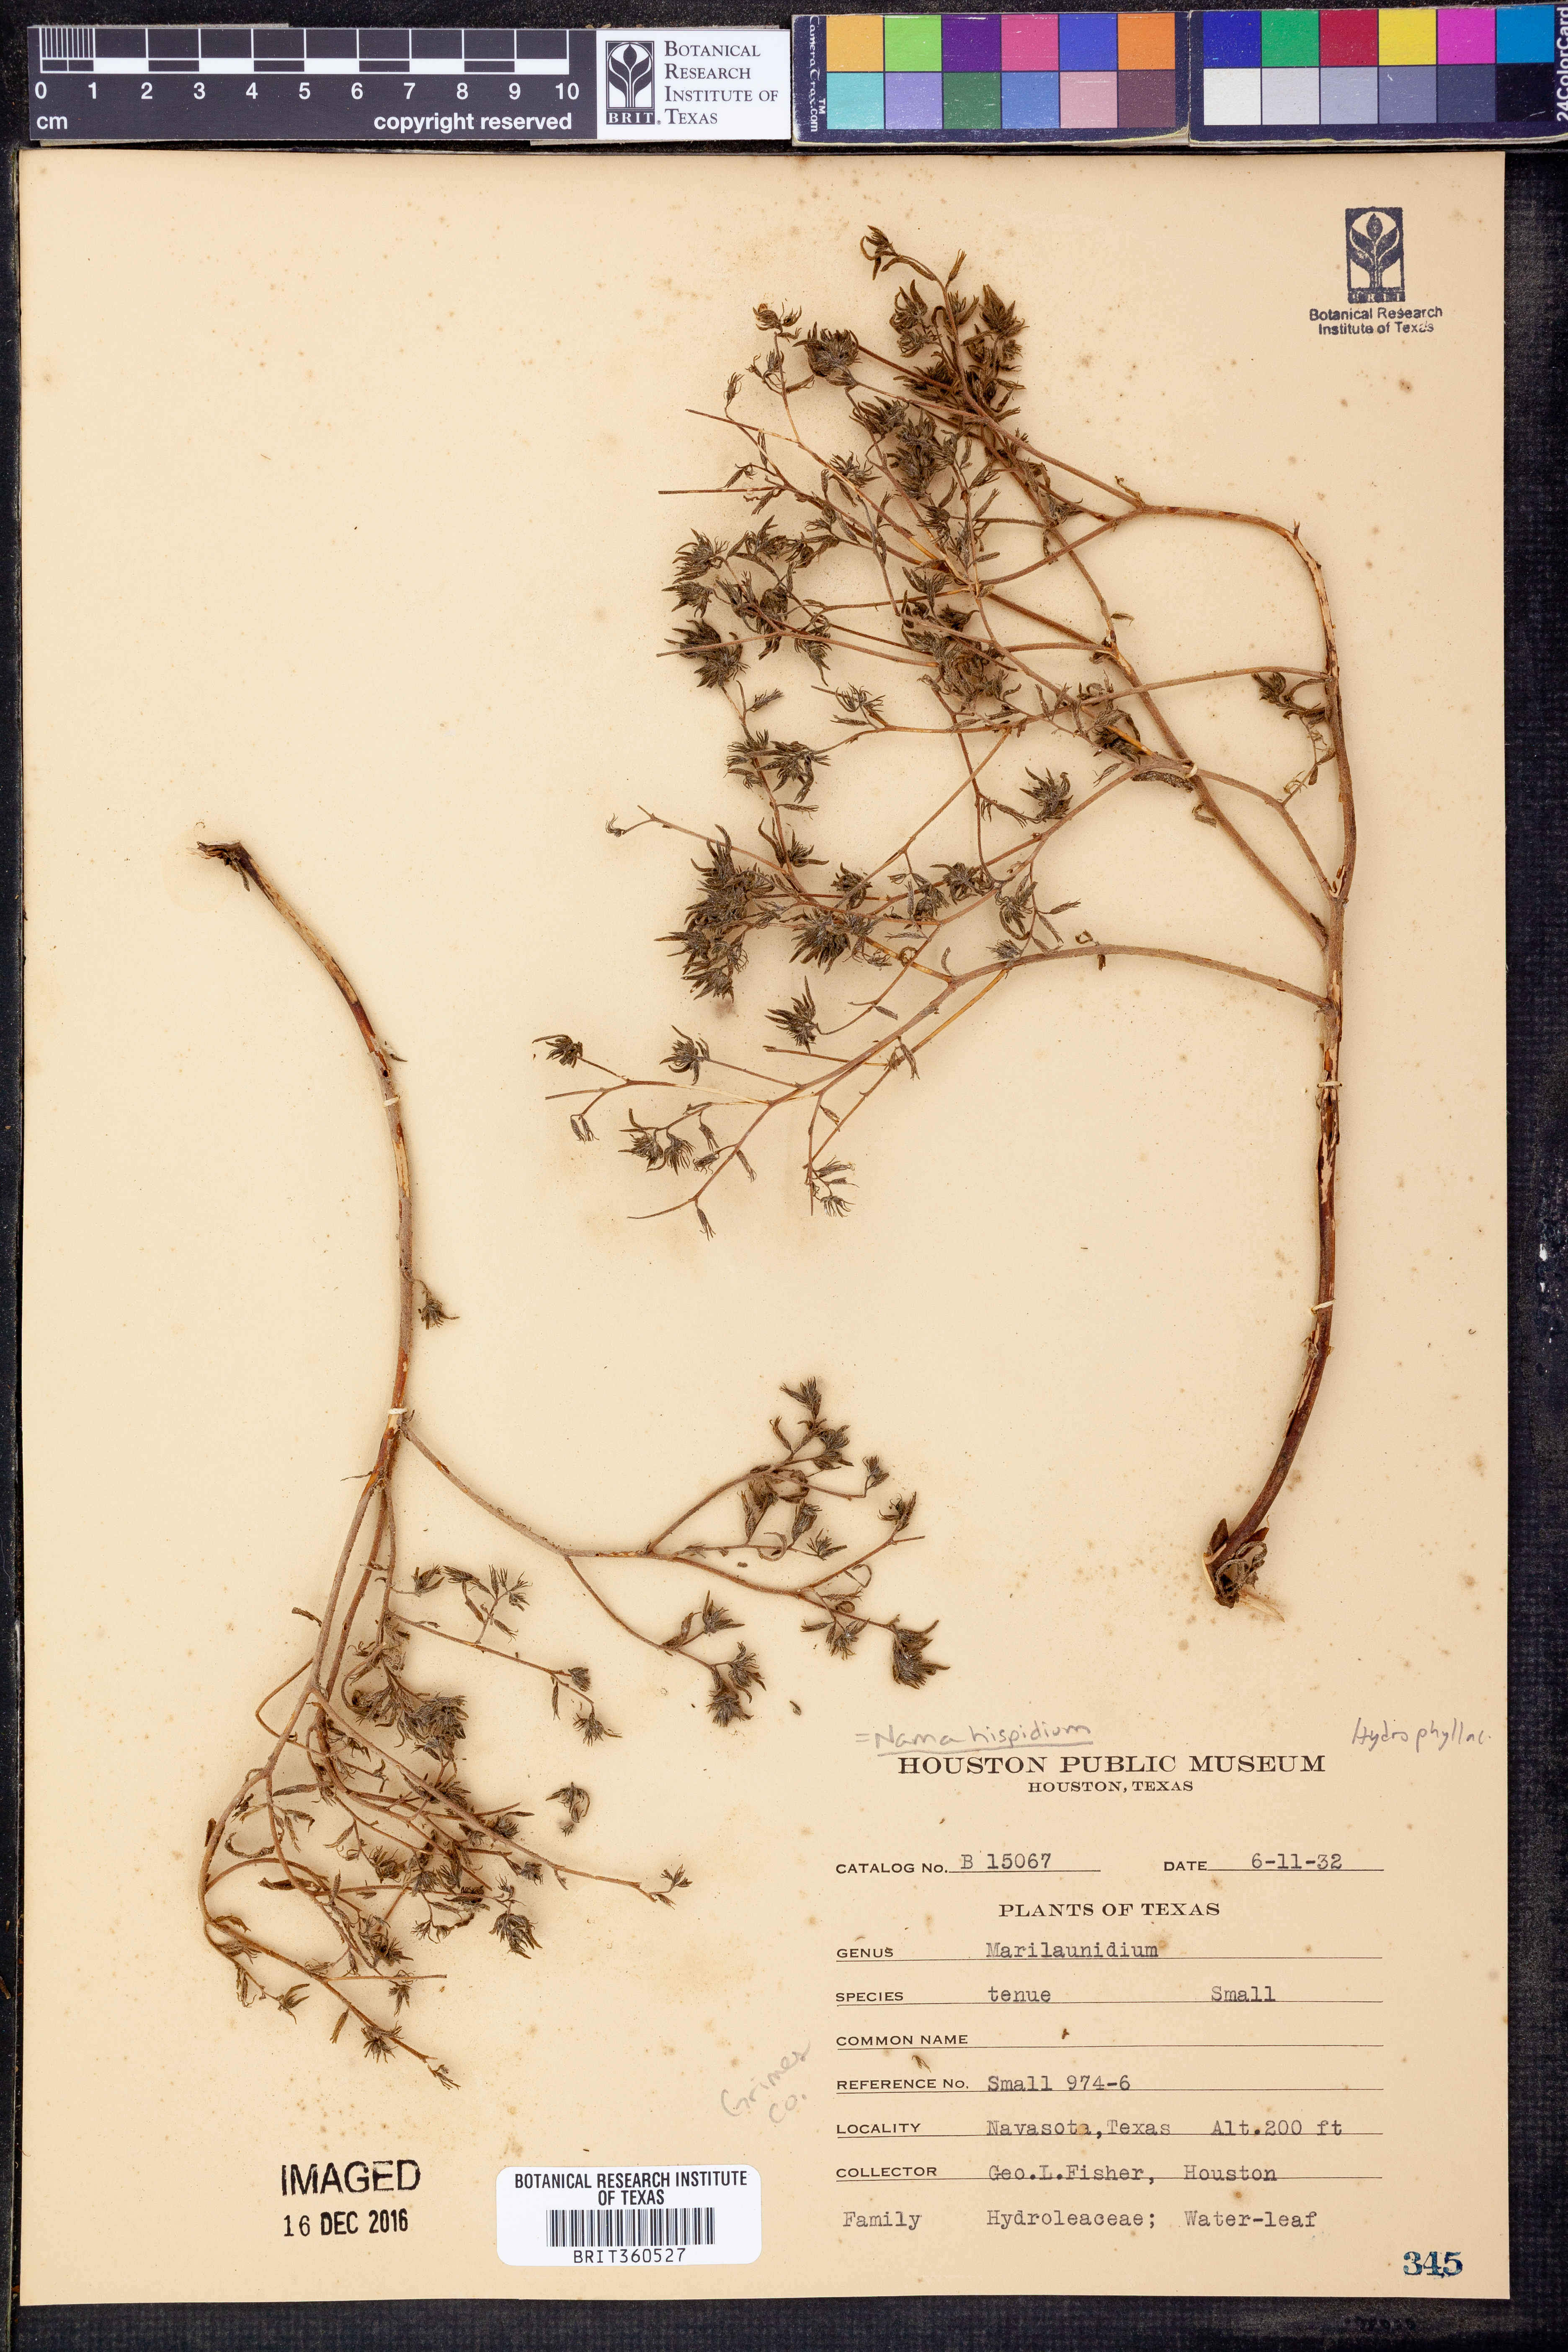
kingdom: Plantae
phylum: Tracheophyta
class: Magnoliopsida
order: Boraginales
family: Namaceae
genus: Nama
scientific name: Nama hispida
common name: Bristly nama
